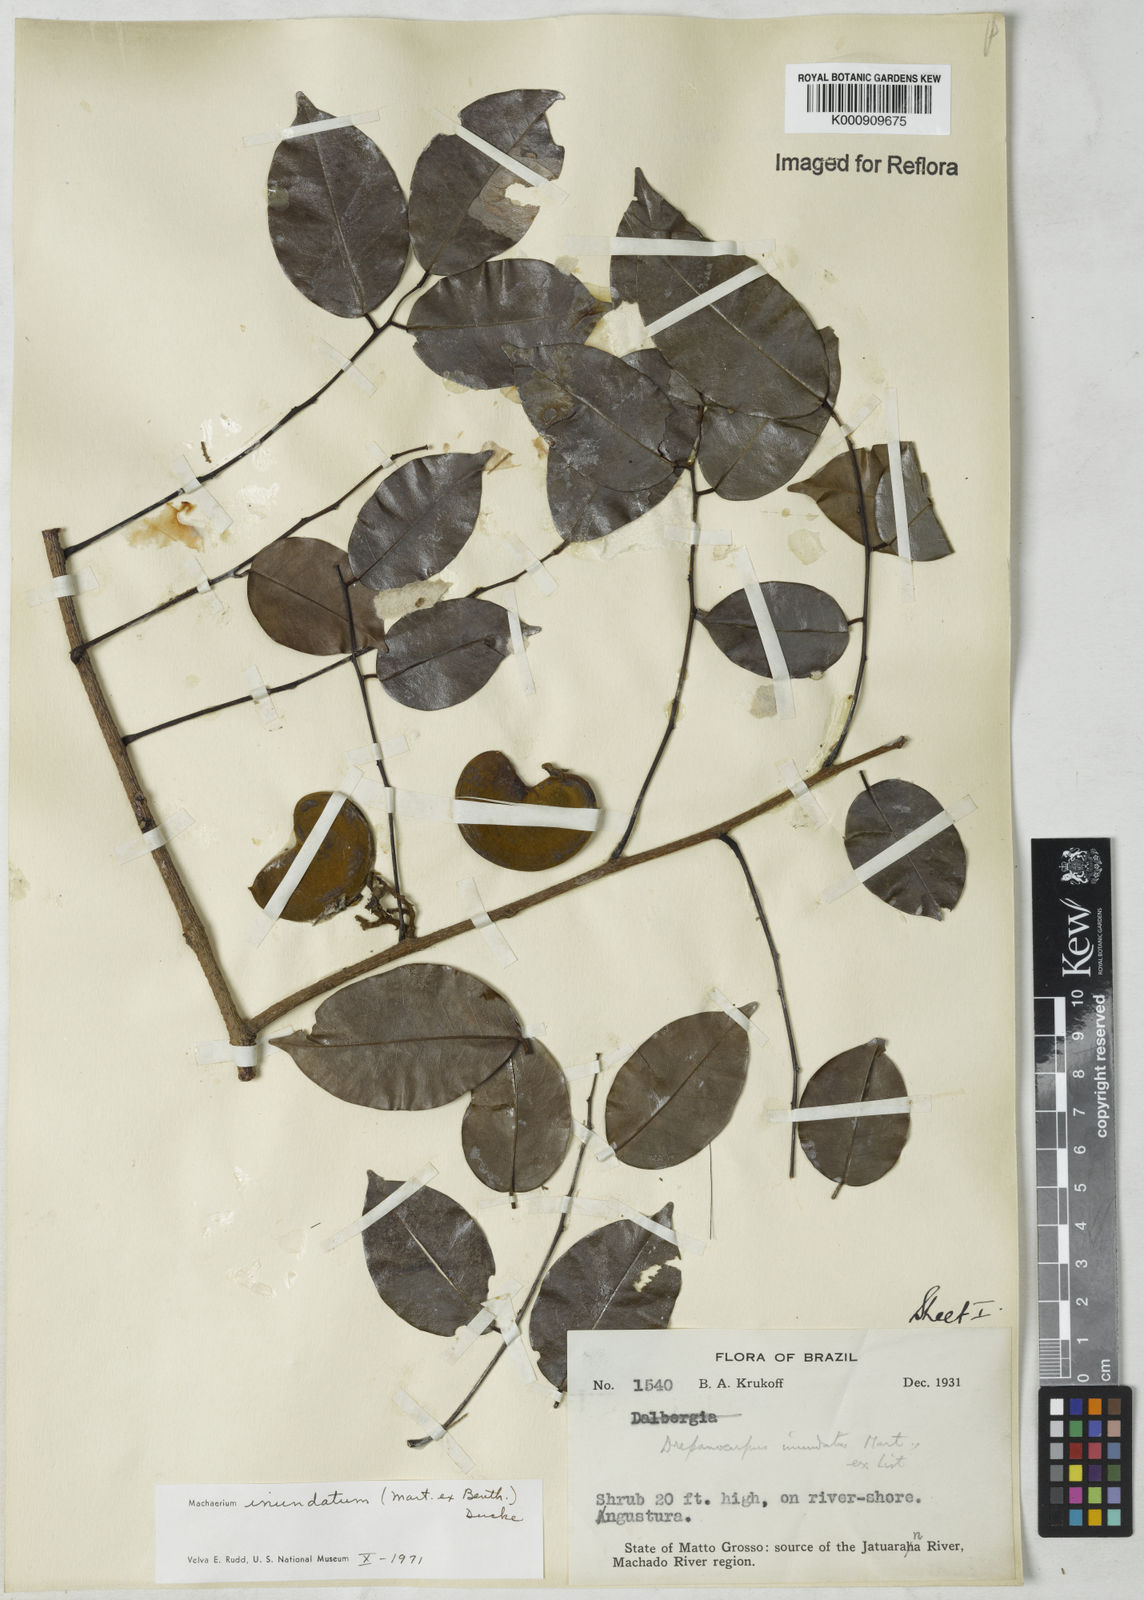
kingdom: Plantae
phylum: Tracheophyta
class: Magnoliopsida
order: Fabales
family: Fabaceae
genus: Machaerium
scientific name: Machaerium inundatum
